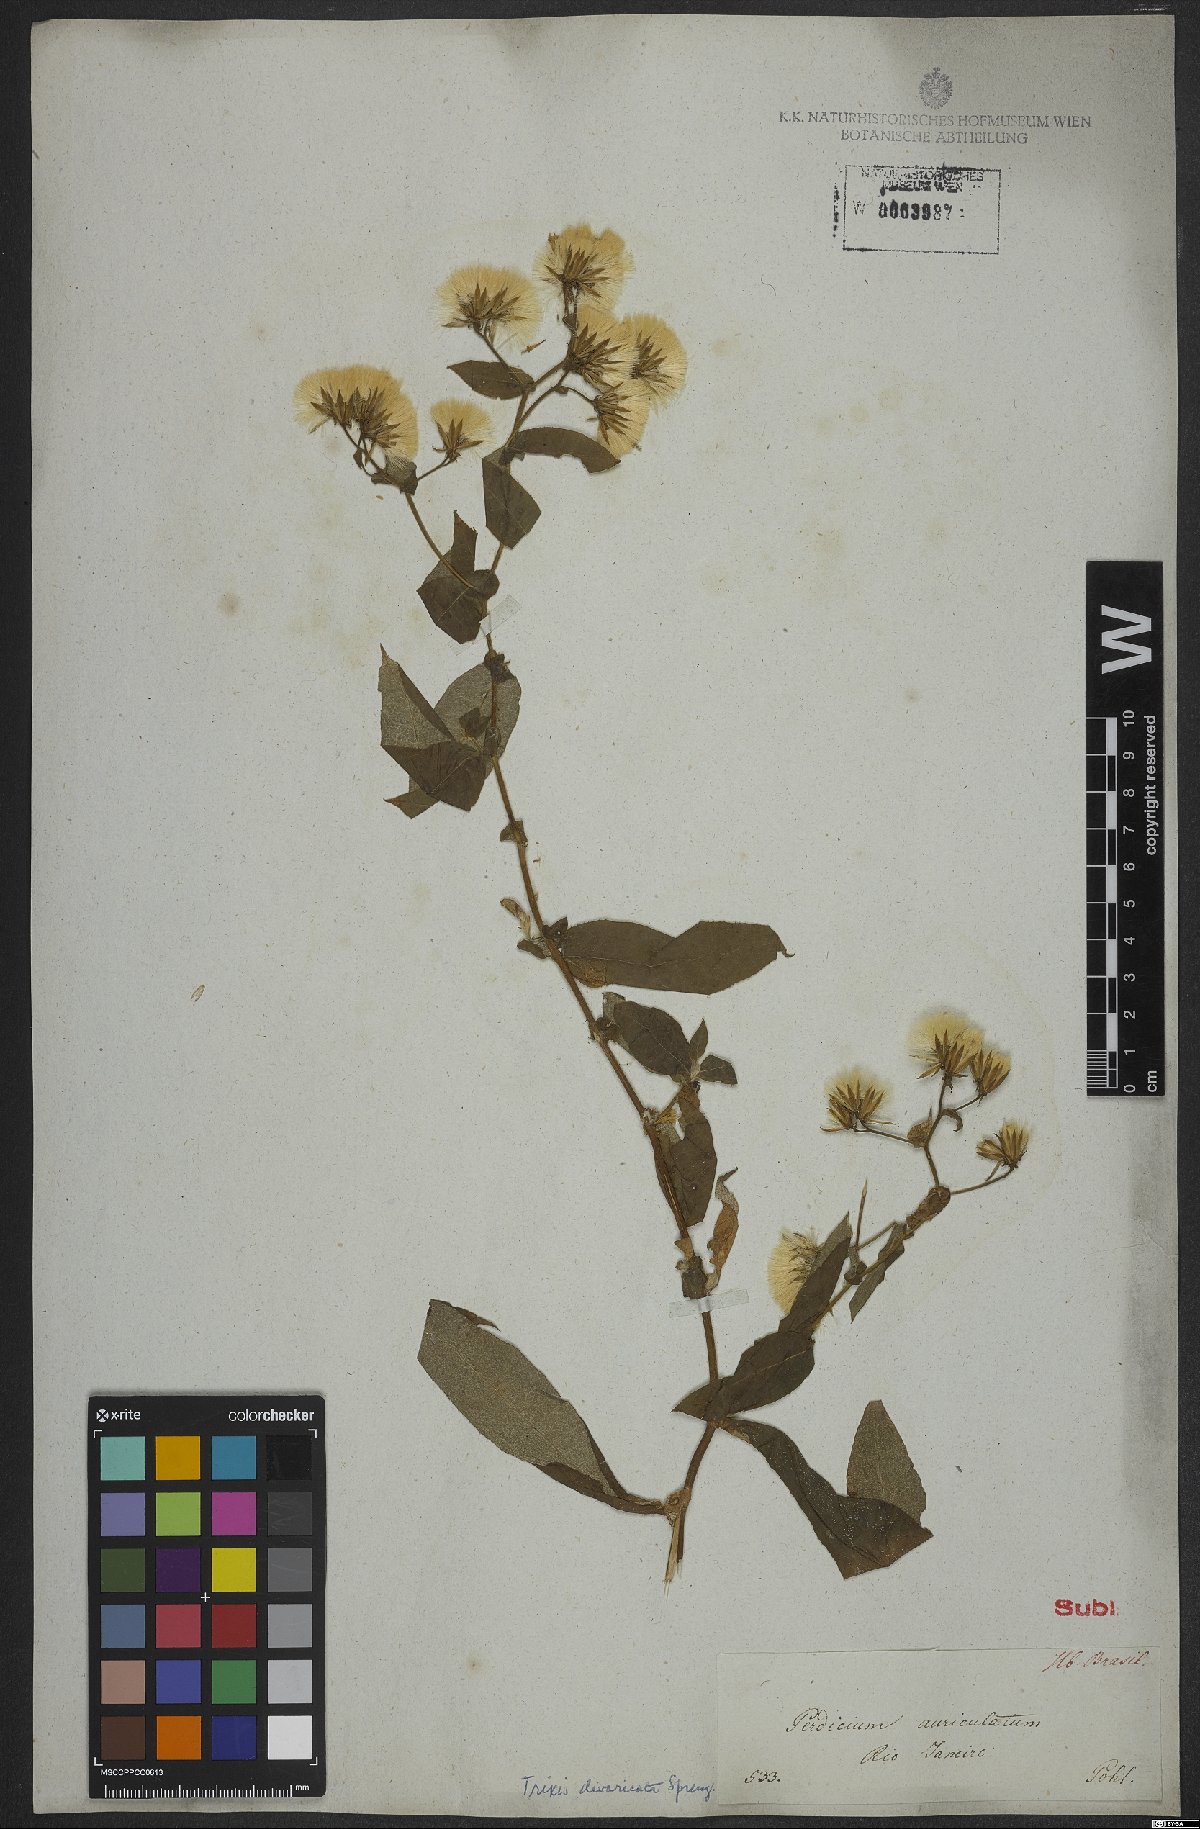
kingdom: Plantae
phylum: Tracheophyta
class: Magnoliopsida
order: Asterales
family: Asteraceae
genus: Trixis
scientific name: Trixis divaricata
